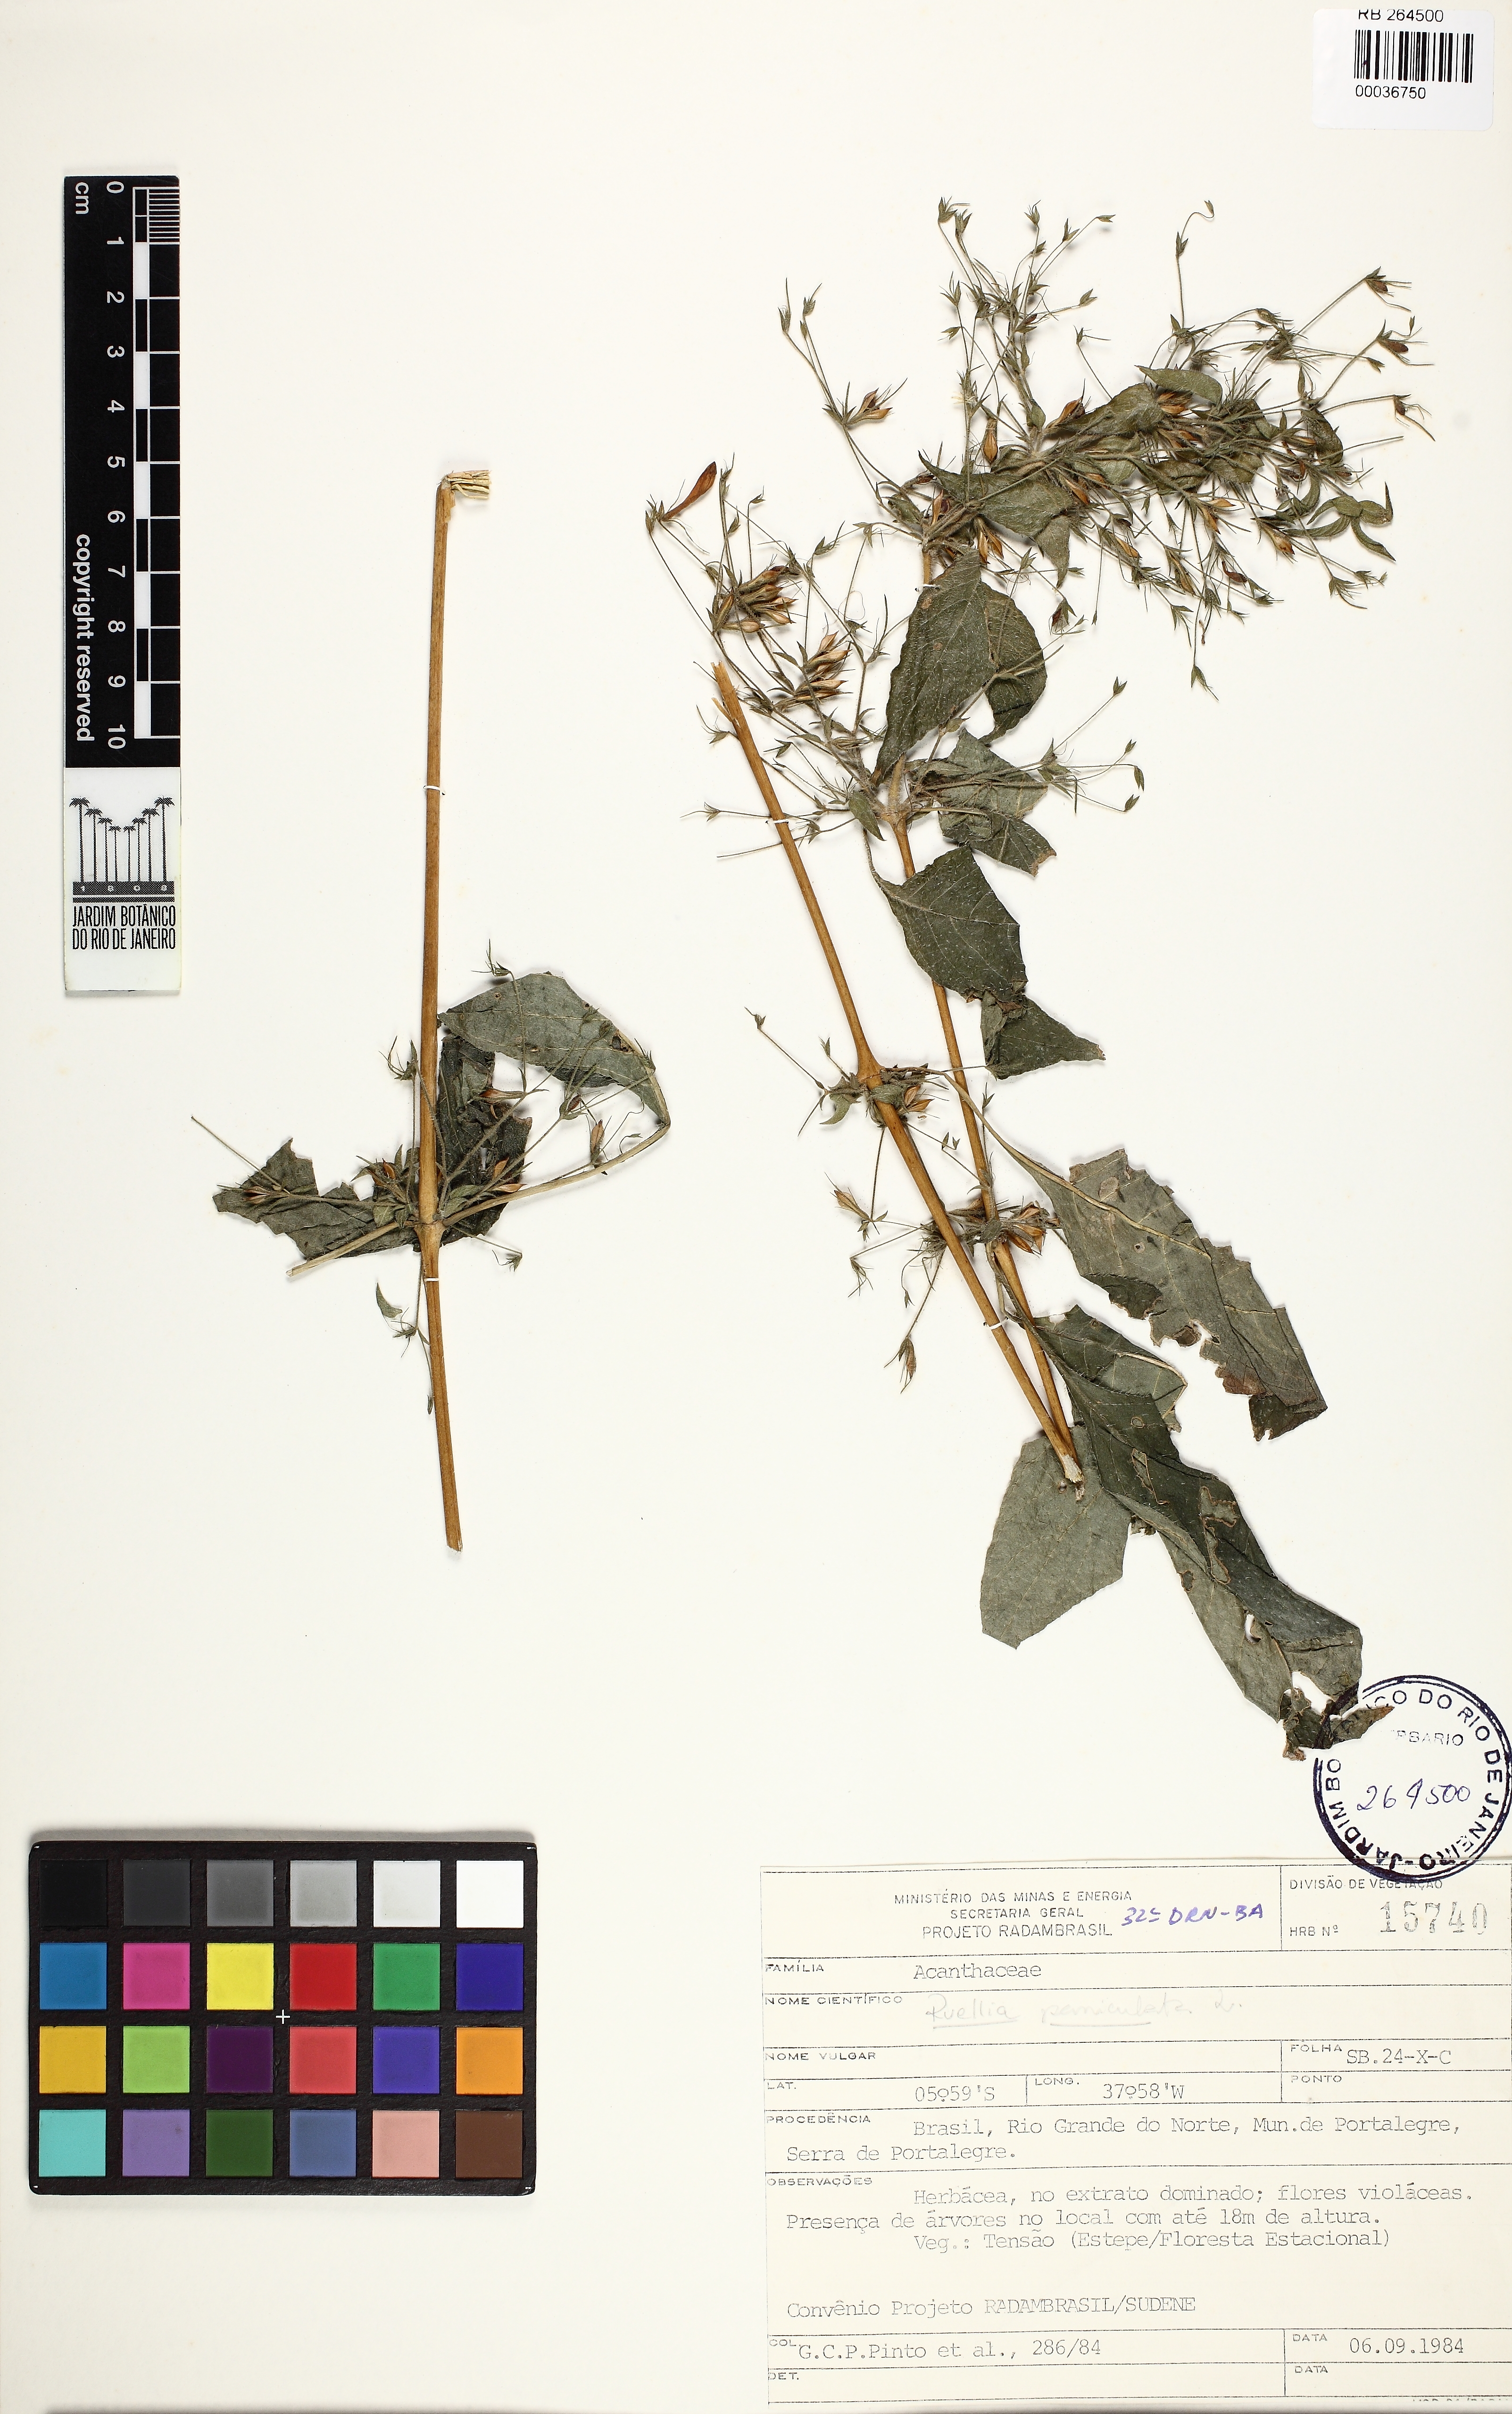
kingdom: Plantae
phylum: Tracheophyta
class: Magnoliopsida
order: Lamiales
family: Acanthaceae
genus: Ruellia
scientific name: Ruellia paniculata
